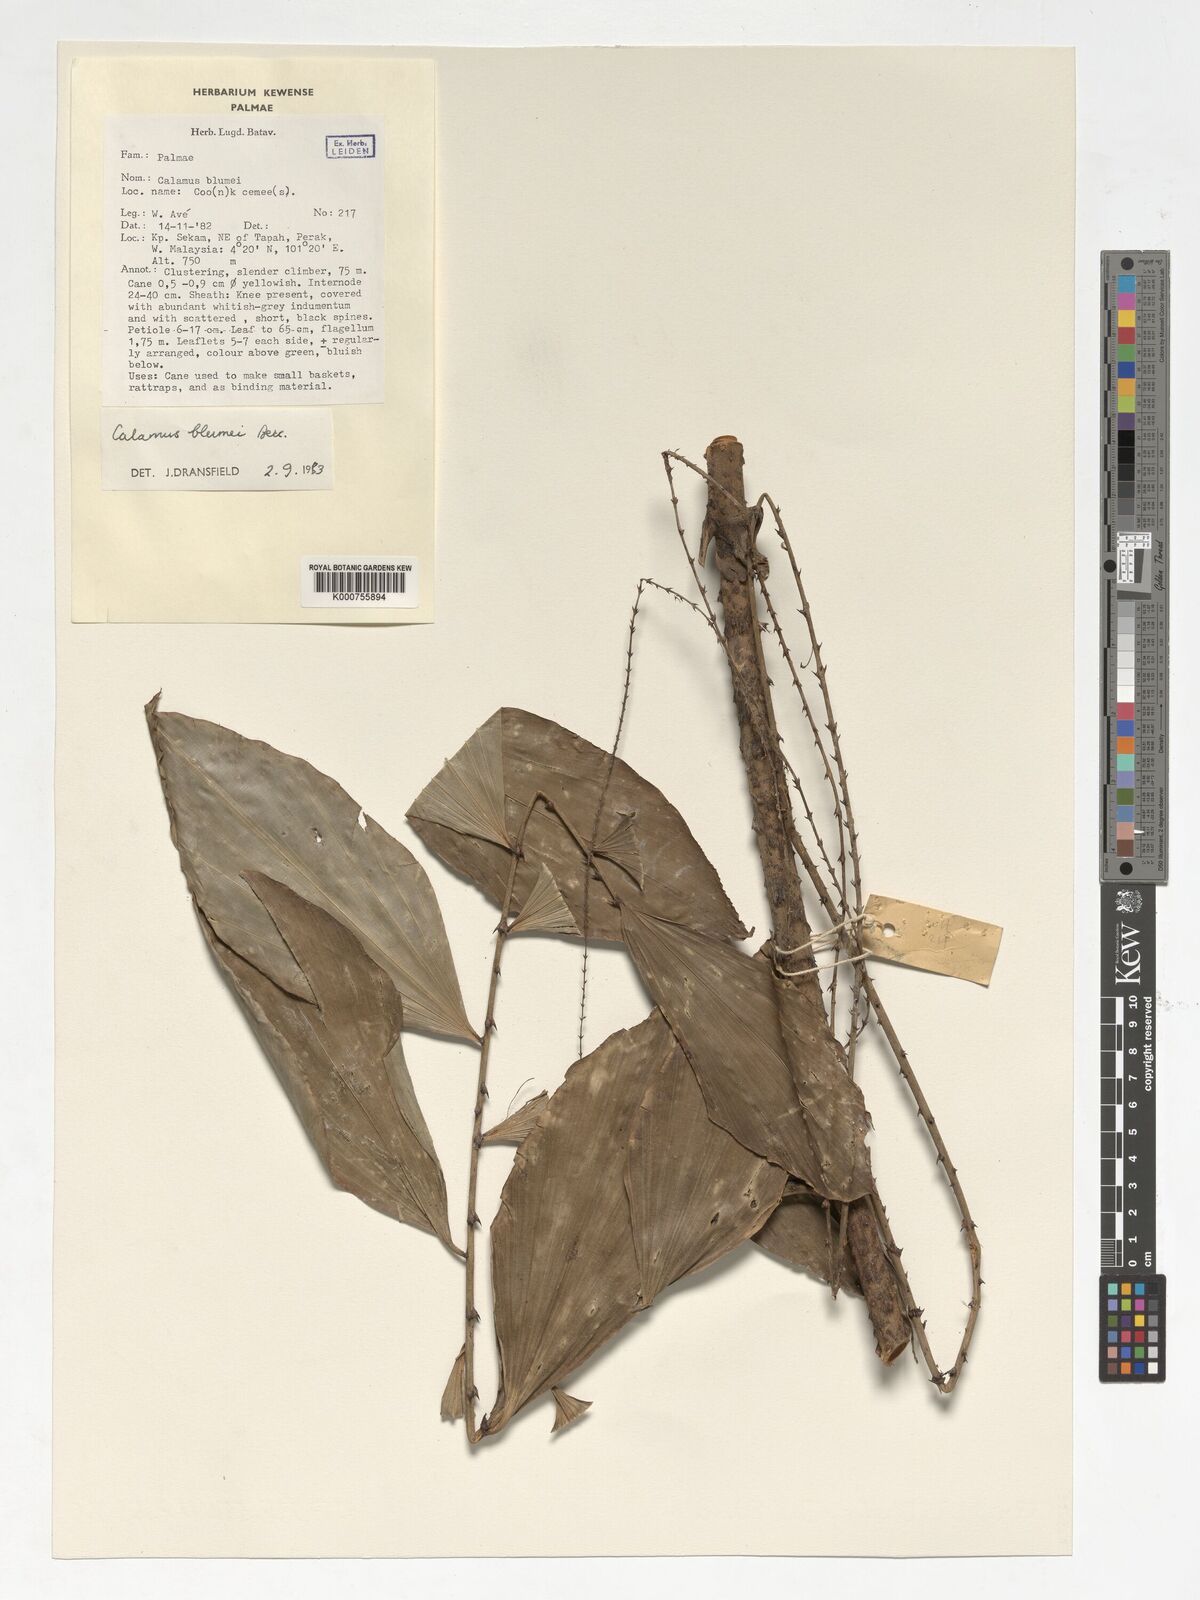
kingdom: Plantae
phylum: Tracheophyta
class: Liliopsida
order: Arecales
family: Arecaceae
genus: Calamus
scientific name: Calamus rhomboideus
